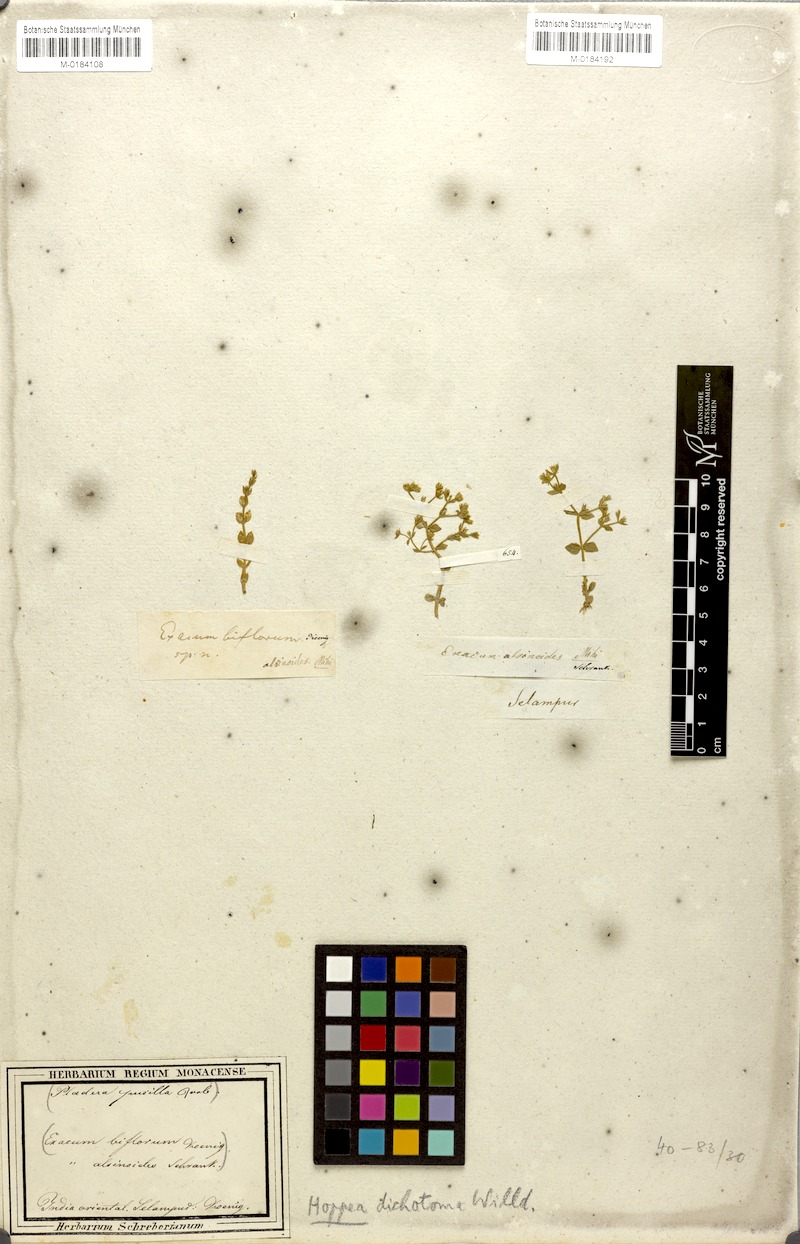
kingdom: Plantae
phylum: Tracheophyta
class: Magnoliopsida
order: Gentianales
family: Gentianaceae
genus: Hoppea
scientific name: Hoppea dichotoma
